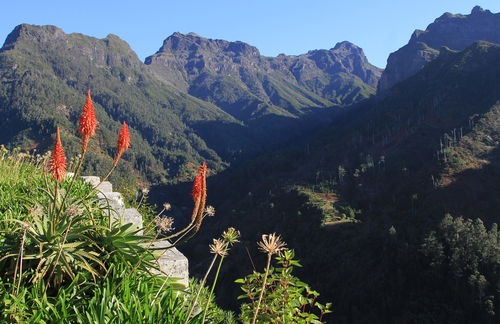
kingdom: Plantae
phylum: Tracheophyta
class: Liliopsida
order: Asparagales
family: Asphodelaceae
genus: Aloe
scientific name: Aloe arborescens
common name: Candelabra aloe
